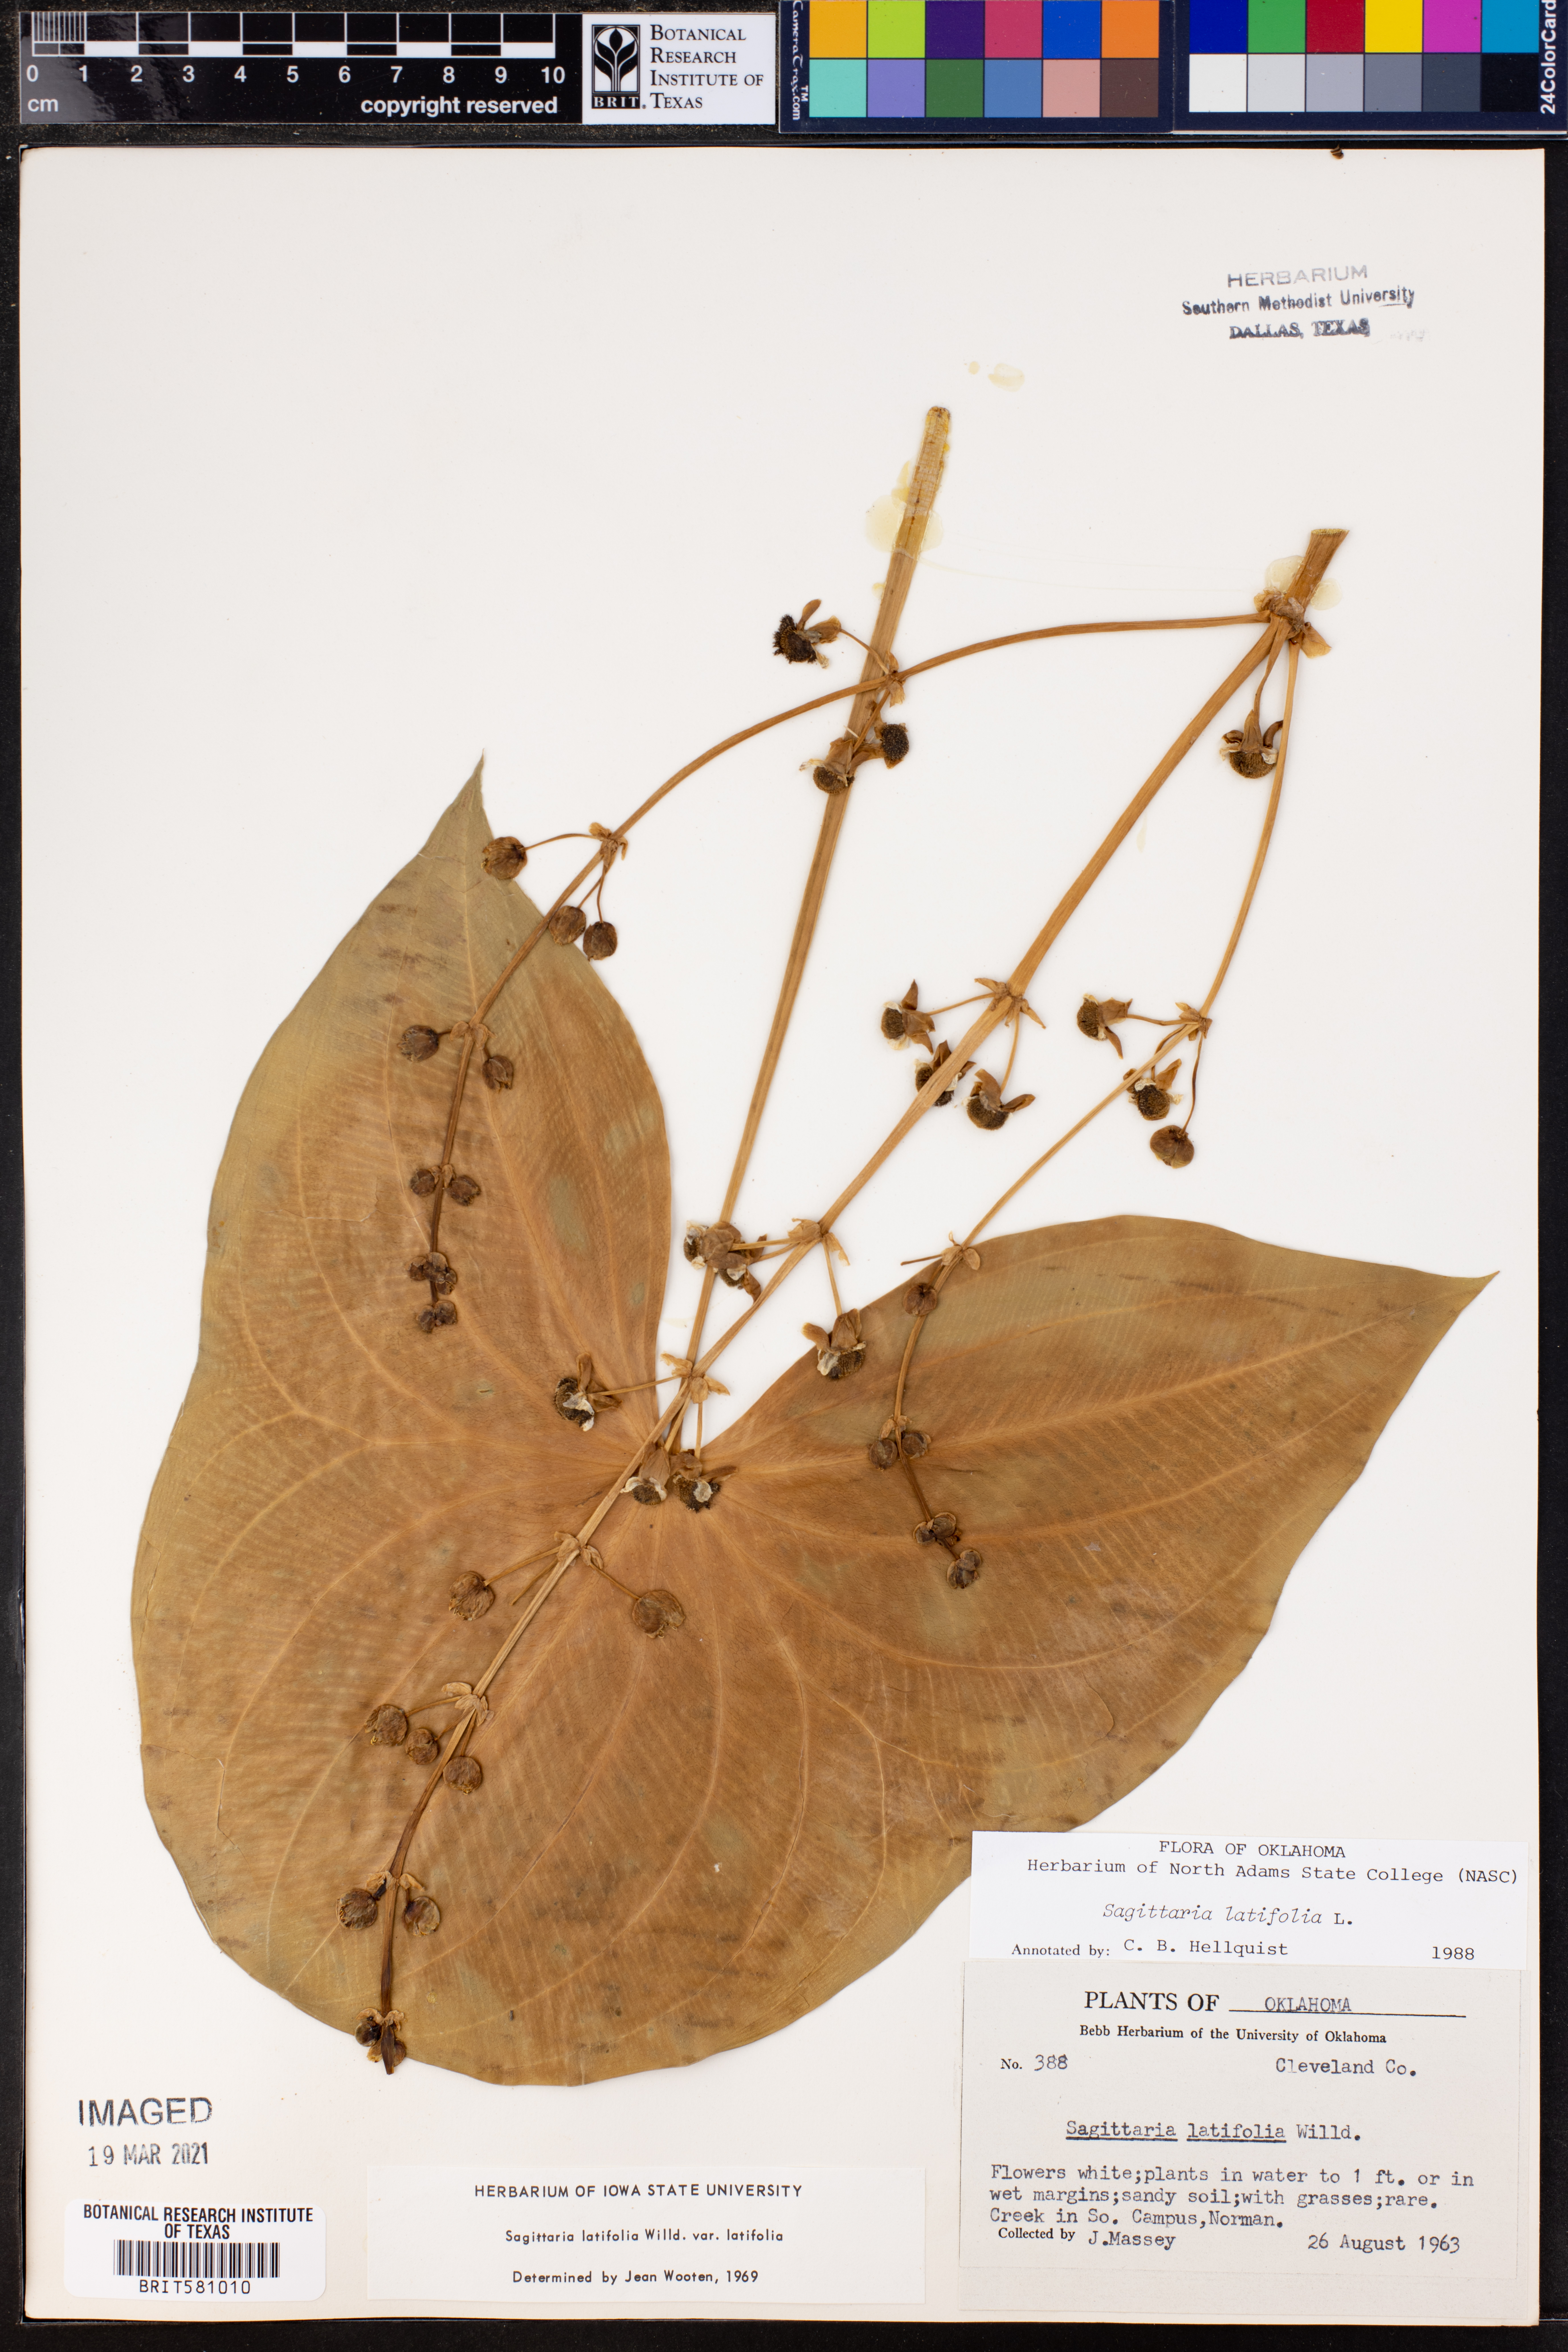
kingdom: Plantae
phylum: Tracheophyta
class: Liliopsida
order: Alismatales
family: Alismataceae
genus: Sagittaria
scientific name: Sagittaria latifolia
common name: Duck-potato
